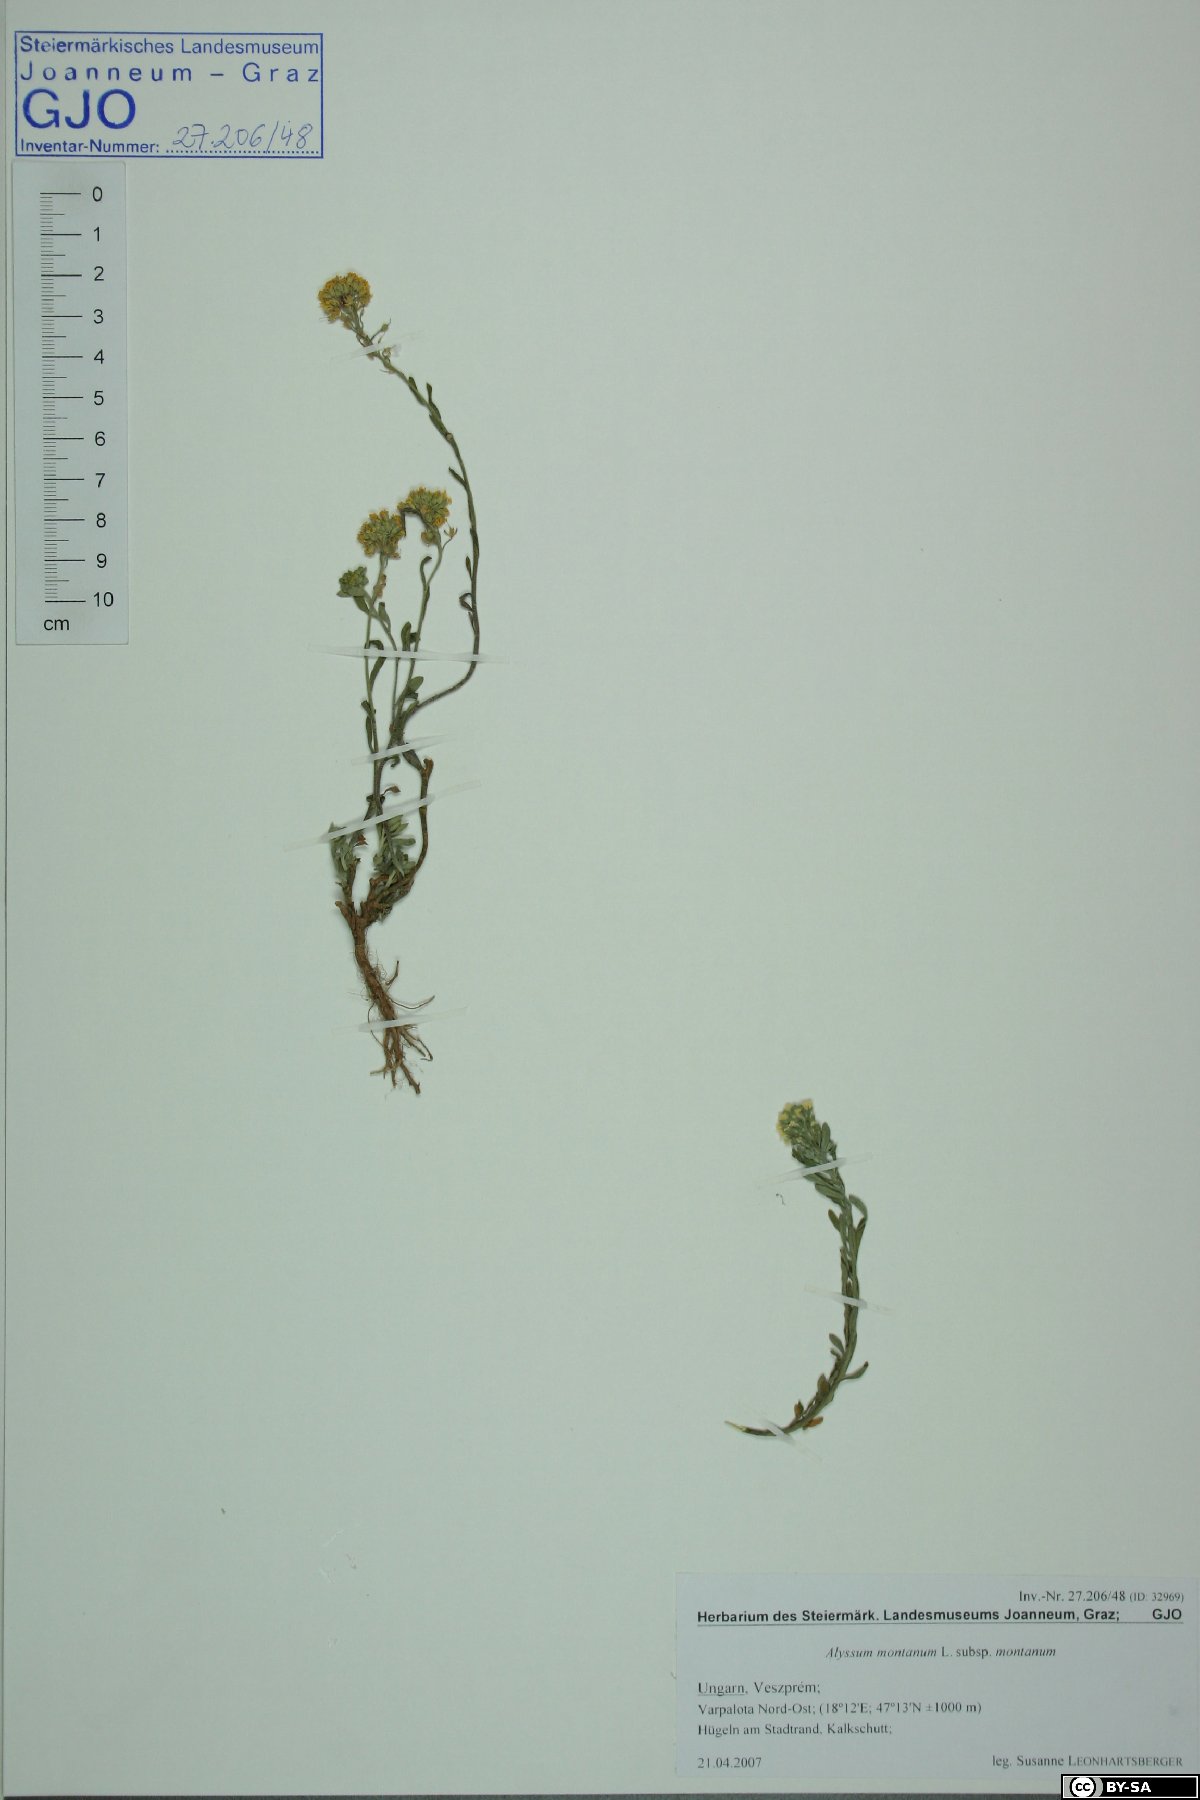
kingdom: Plantae
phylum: Tracheophyta
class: Magnoliopsida
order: Brassicales
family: Brassicaceae
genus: Alyssum
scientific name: Alyssum montanum
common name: Mountain alison
